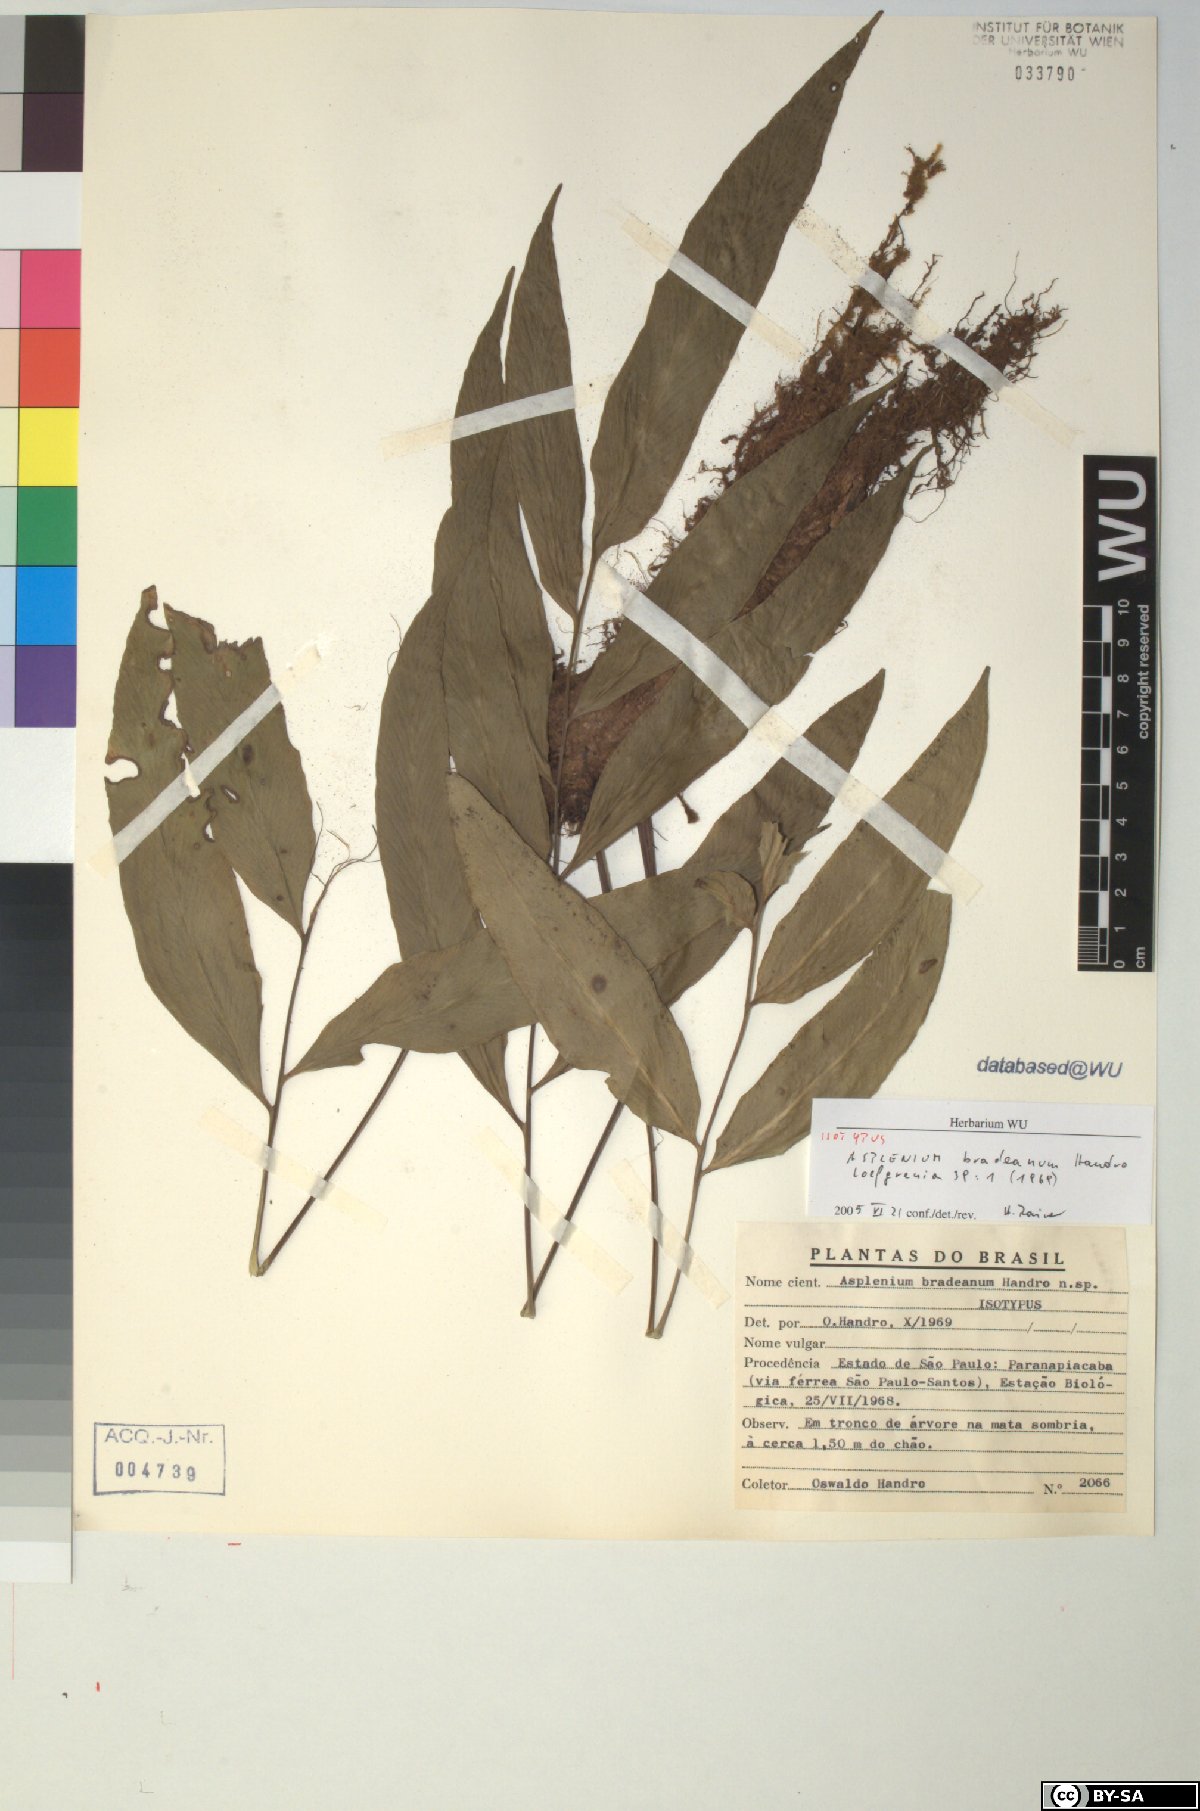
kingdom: Plantae
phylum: Tracheophyta
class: Polypodiopsida
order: Polypodiales
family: Aspleniaceae
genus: Asplenium
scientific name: Asplenium bradeanum
